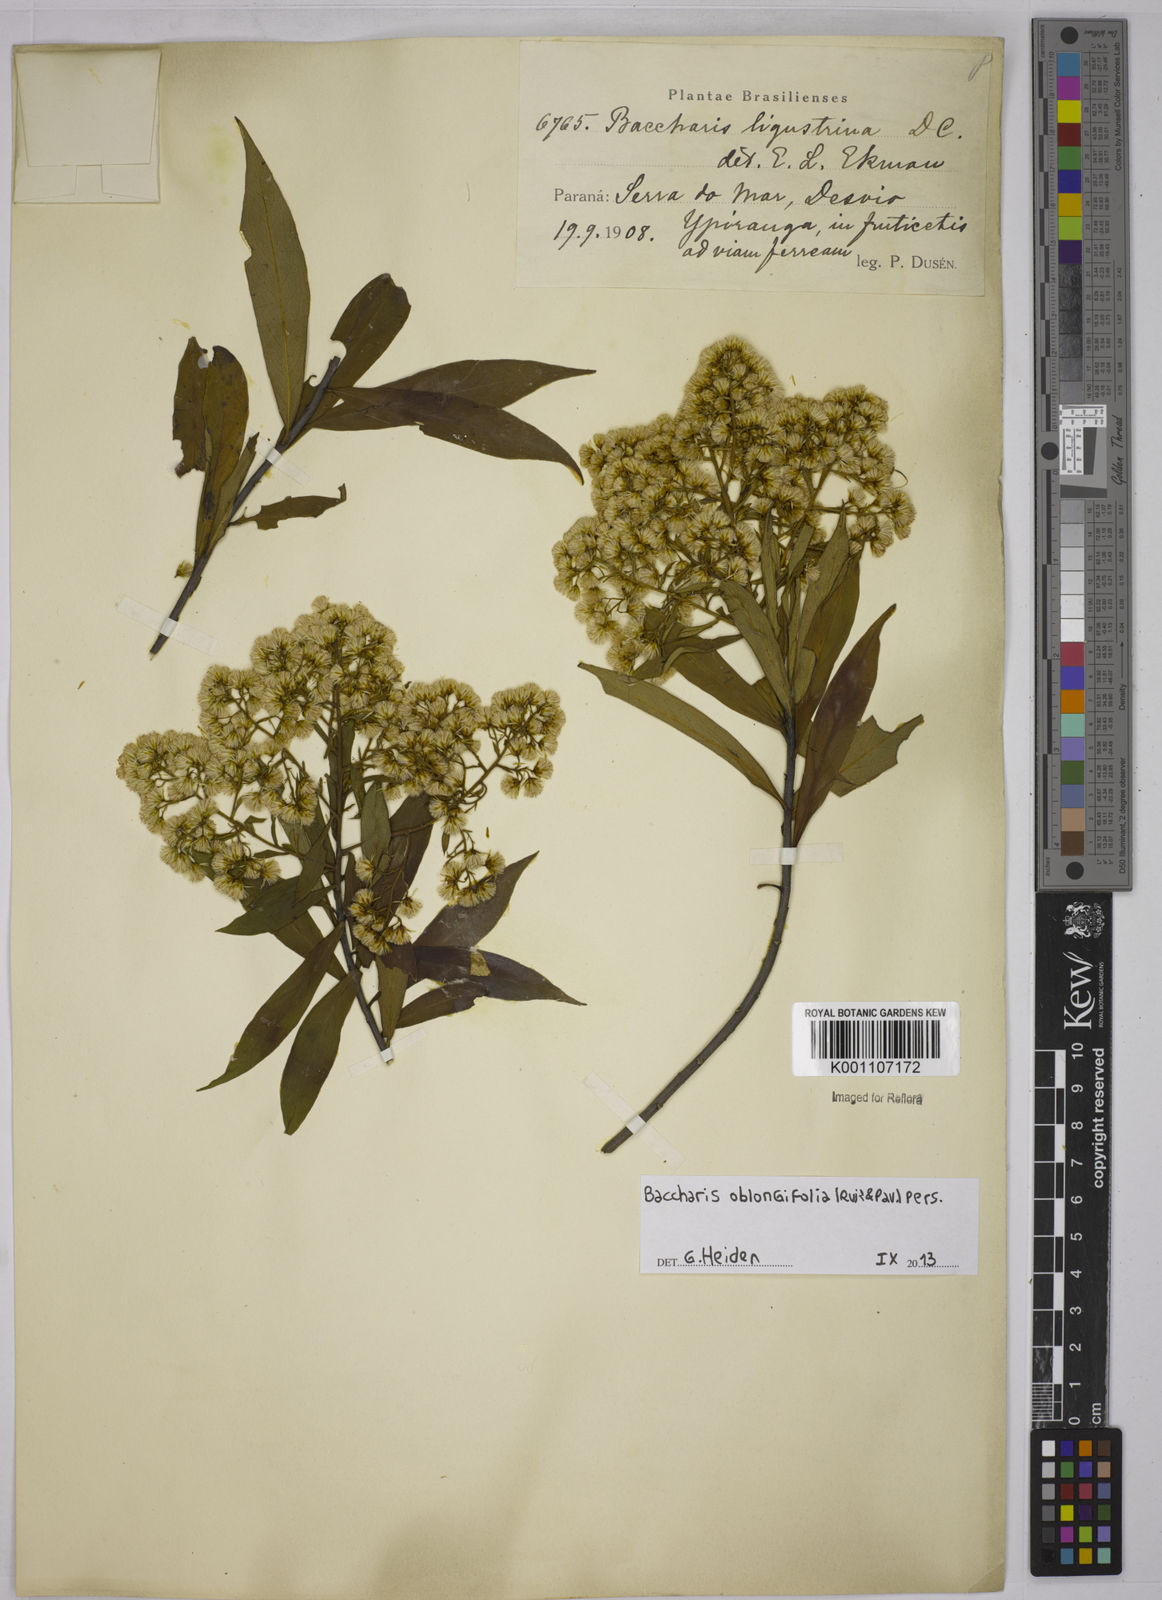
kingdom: Plantae
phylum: Tracheophyta
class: Magnoliopsida
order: Asterales
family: Asteraceae
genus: Baccharis
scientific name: Baccharis oblongifolia
